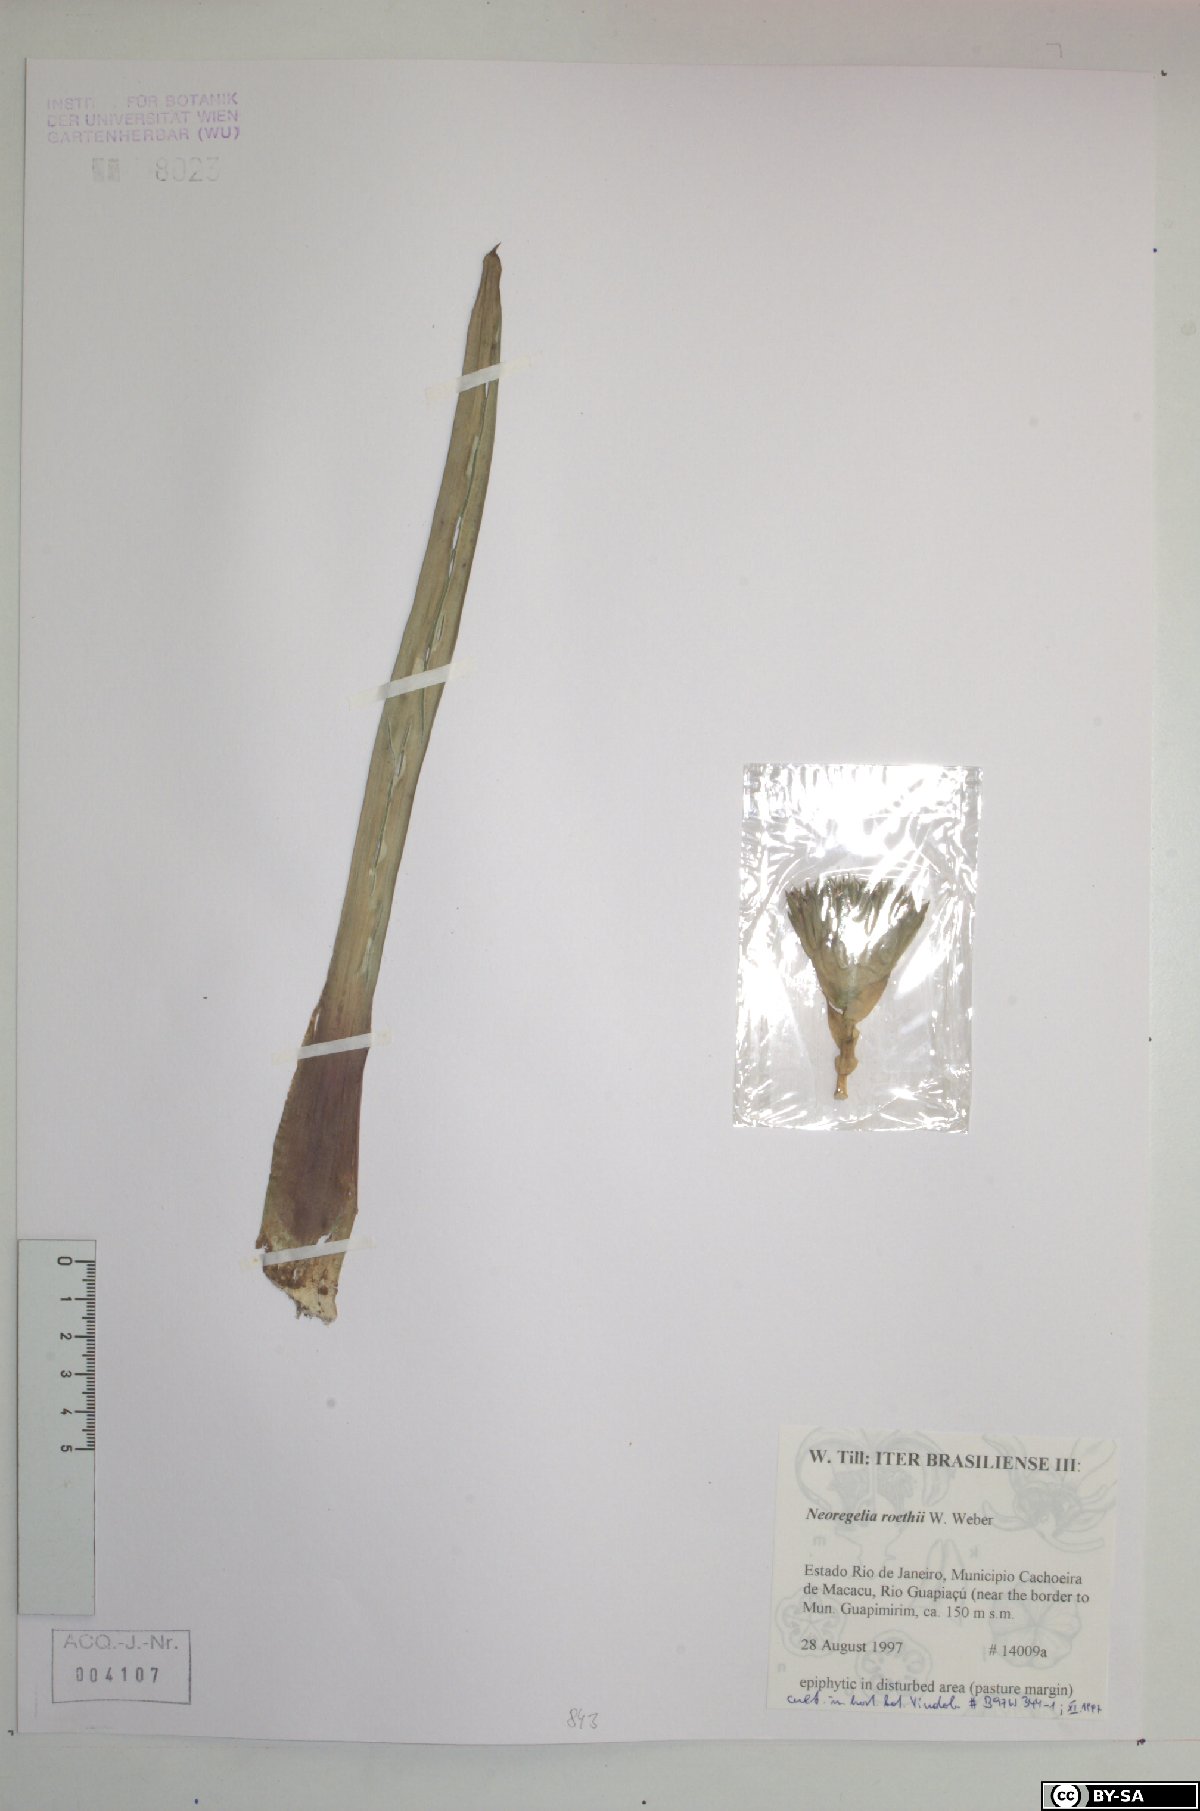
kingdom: Plantae
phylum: Tracheophyta
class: Liliopsida
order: Poales
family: Bromeliaceae
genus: Neoregelia
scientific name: Neoregelia roethii
